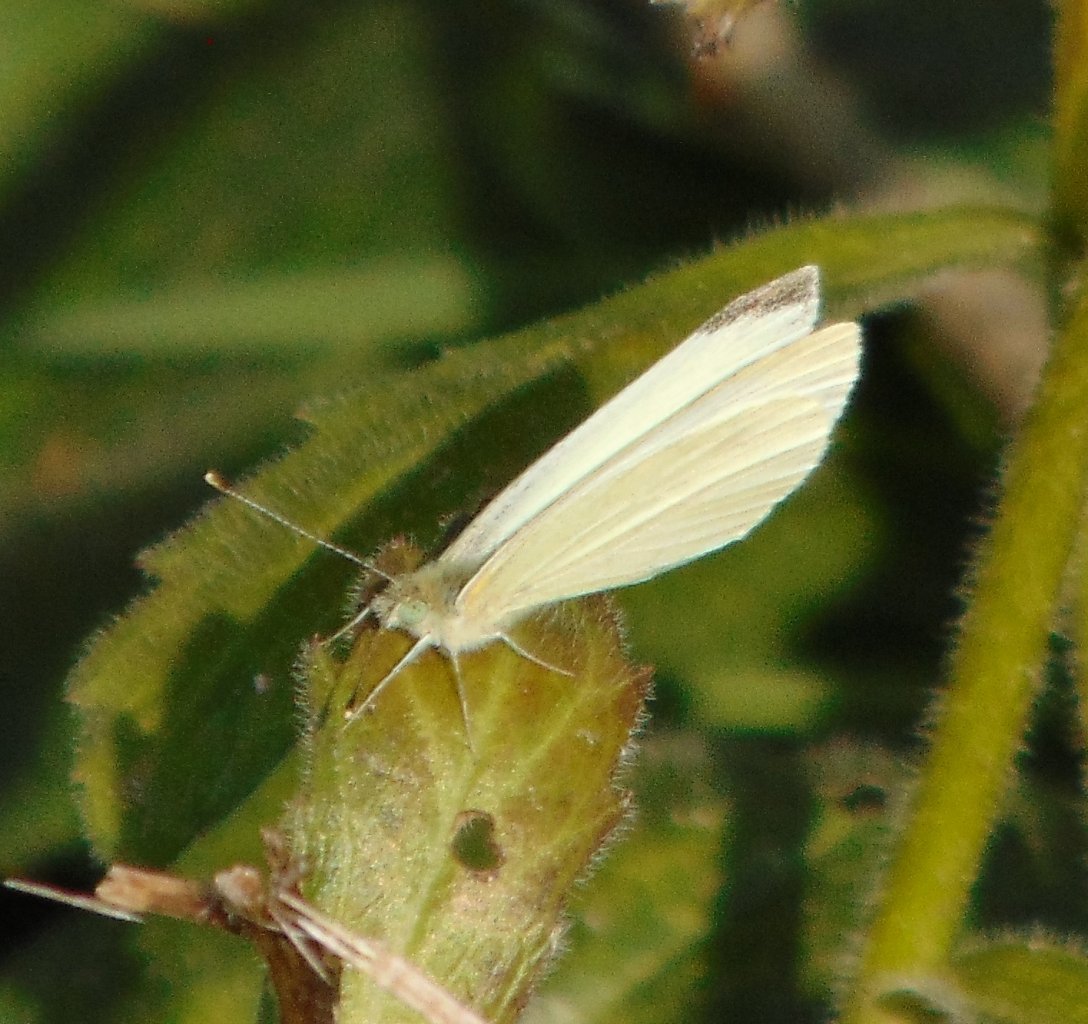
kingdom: Animalia
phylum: Arthropoda
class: Insecta
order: Lepidoptera
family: Pieridae
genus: Pieris
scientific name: Pieris rapae
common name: Cabbage White
